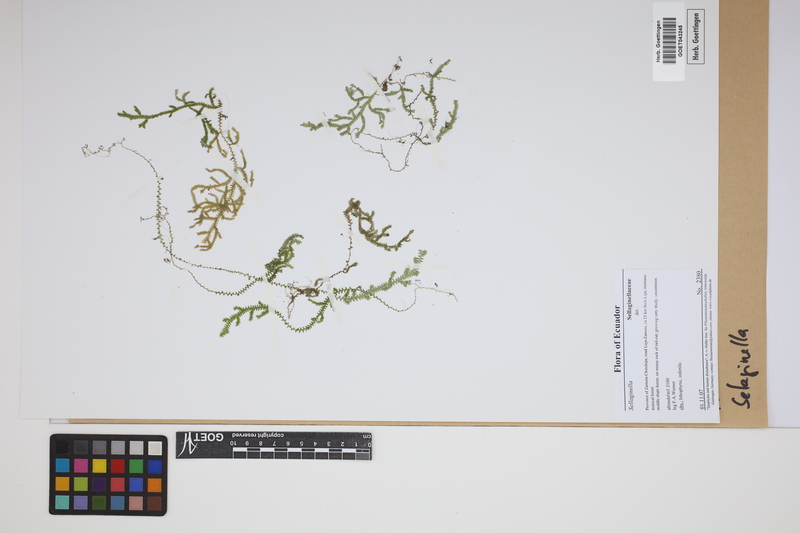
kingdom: Plantae
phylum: Tracheophyta
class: Lycopodiopsida
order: Selaginellales
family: Selaginellaceae
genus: Selaginella
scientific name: Selaginella
